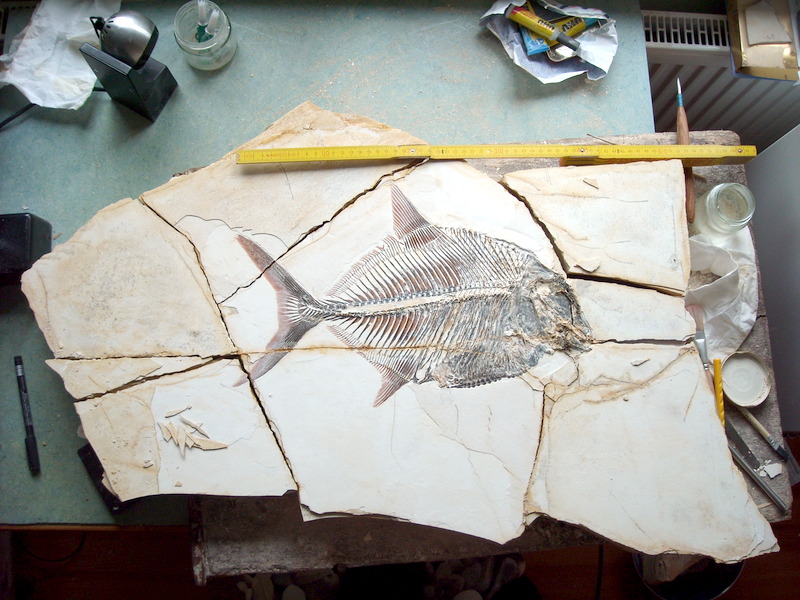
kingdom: Animalia
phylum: Chordata
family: Pycnodontidae
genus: Proscinetes
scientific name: Proscinetes bernardi
